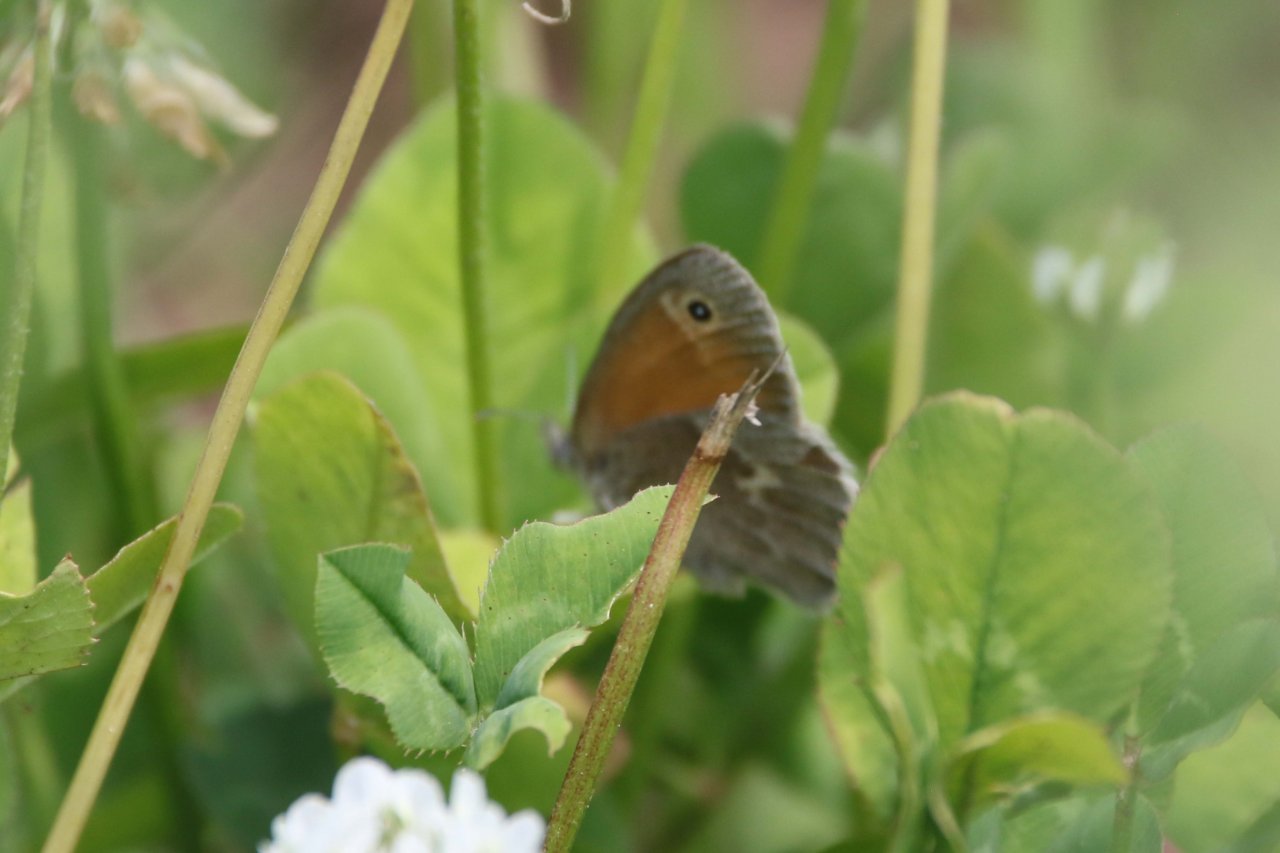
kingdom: Animalia
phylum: Arthropoda
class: Insecta
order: Lepidoptera
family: Nymphalidae
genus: Coenonympha
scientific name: Coenonympha tullia
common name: Large Heath
